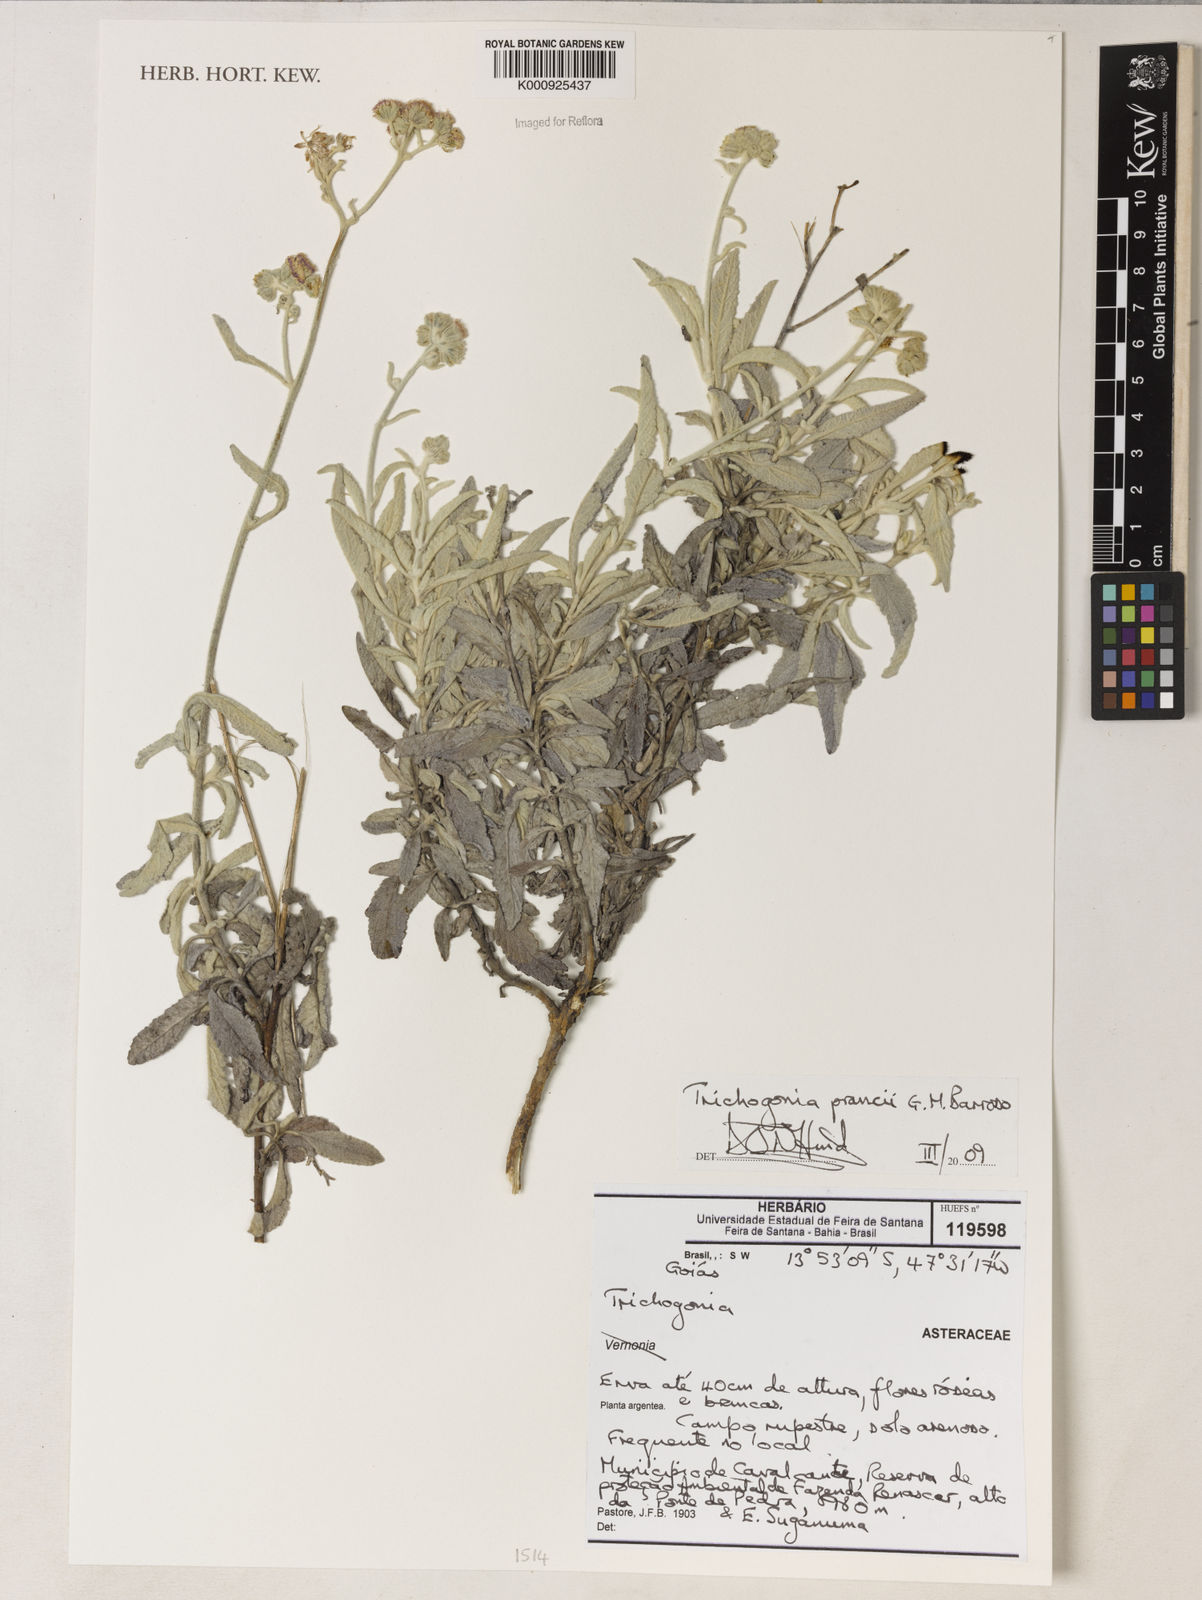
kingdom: Plantae
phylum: Tracheophyta
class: Magnoliopsida
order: Asterales
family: Asteraceae
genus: Trichogonia
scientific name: Trichogonia prancei
